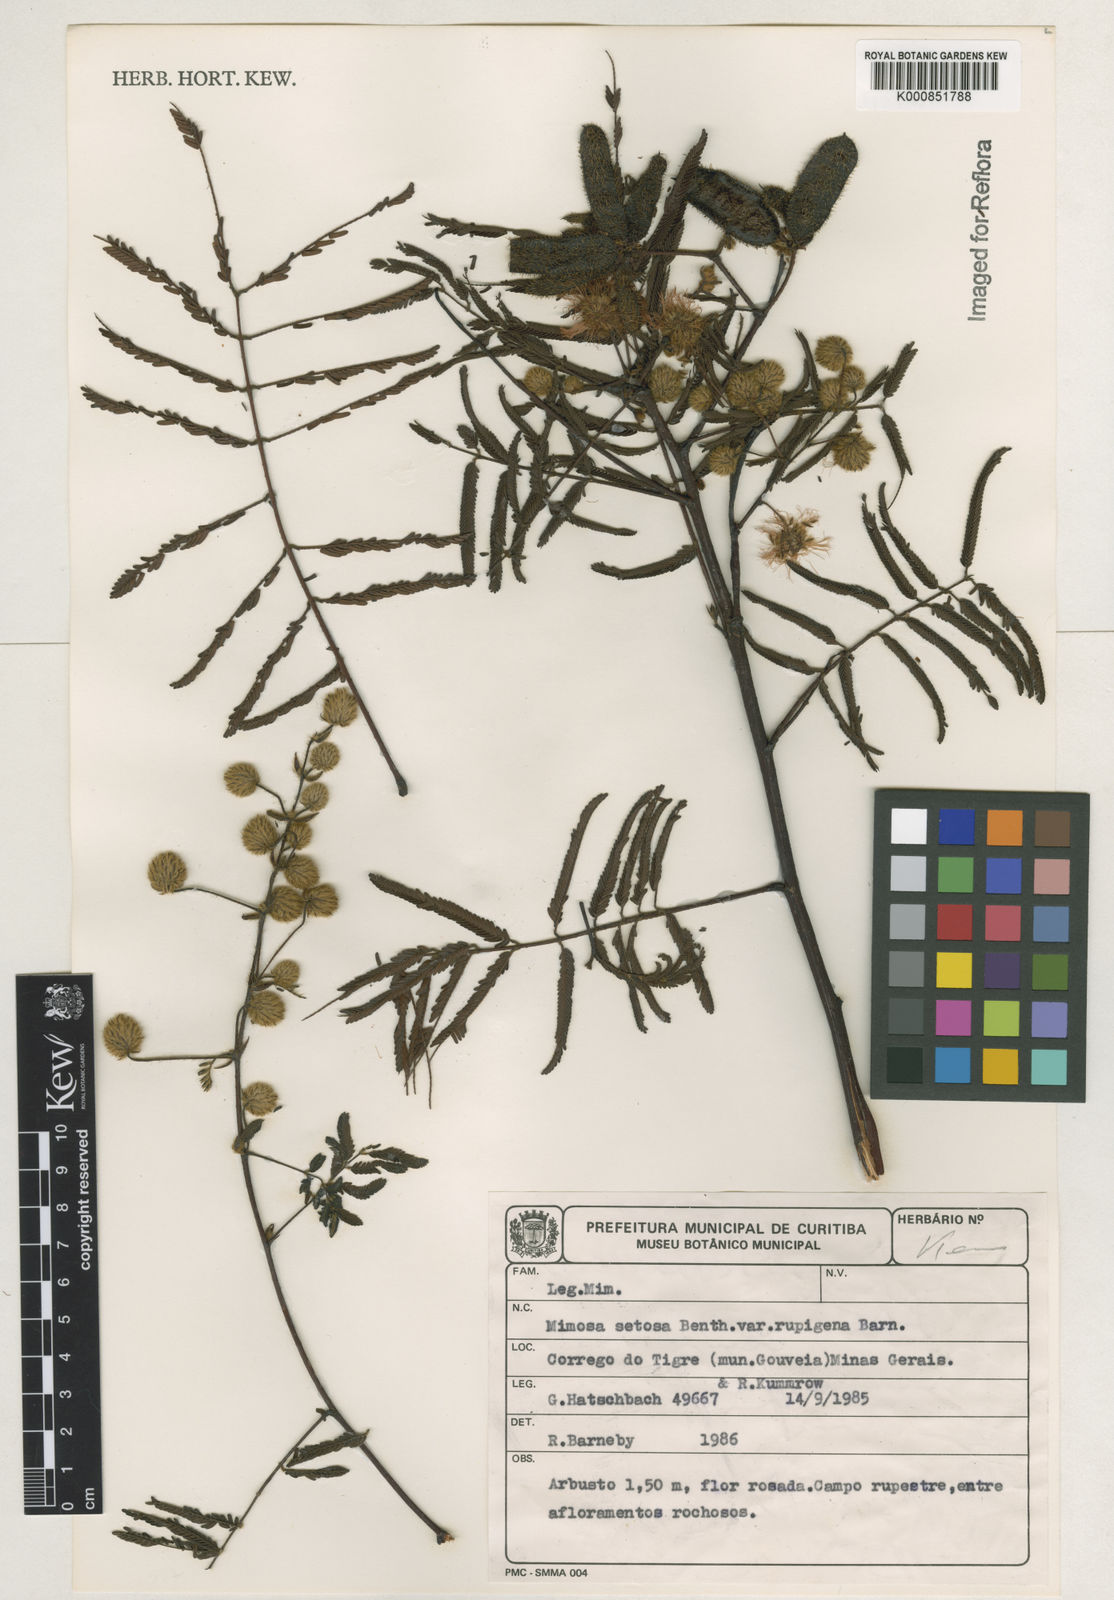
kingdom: Plantae
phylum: Tracheophyta
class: Magnoliopsida
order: Fabales
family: Fabaceae
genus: Mimosa
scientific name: Mimosa rupigena
